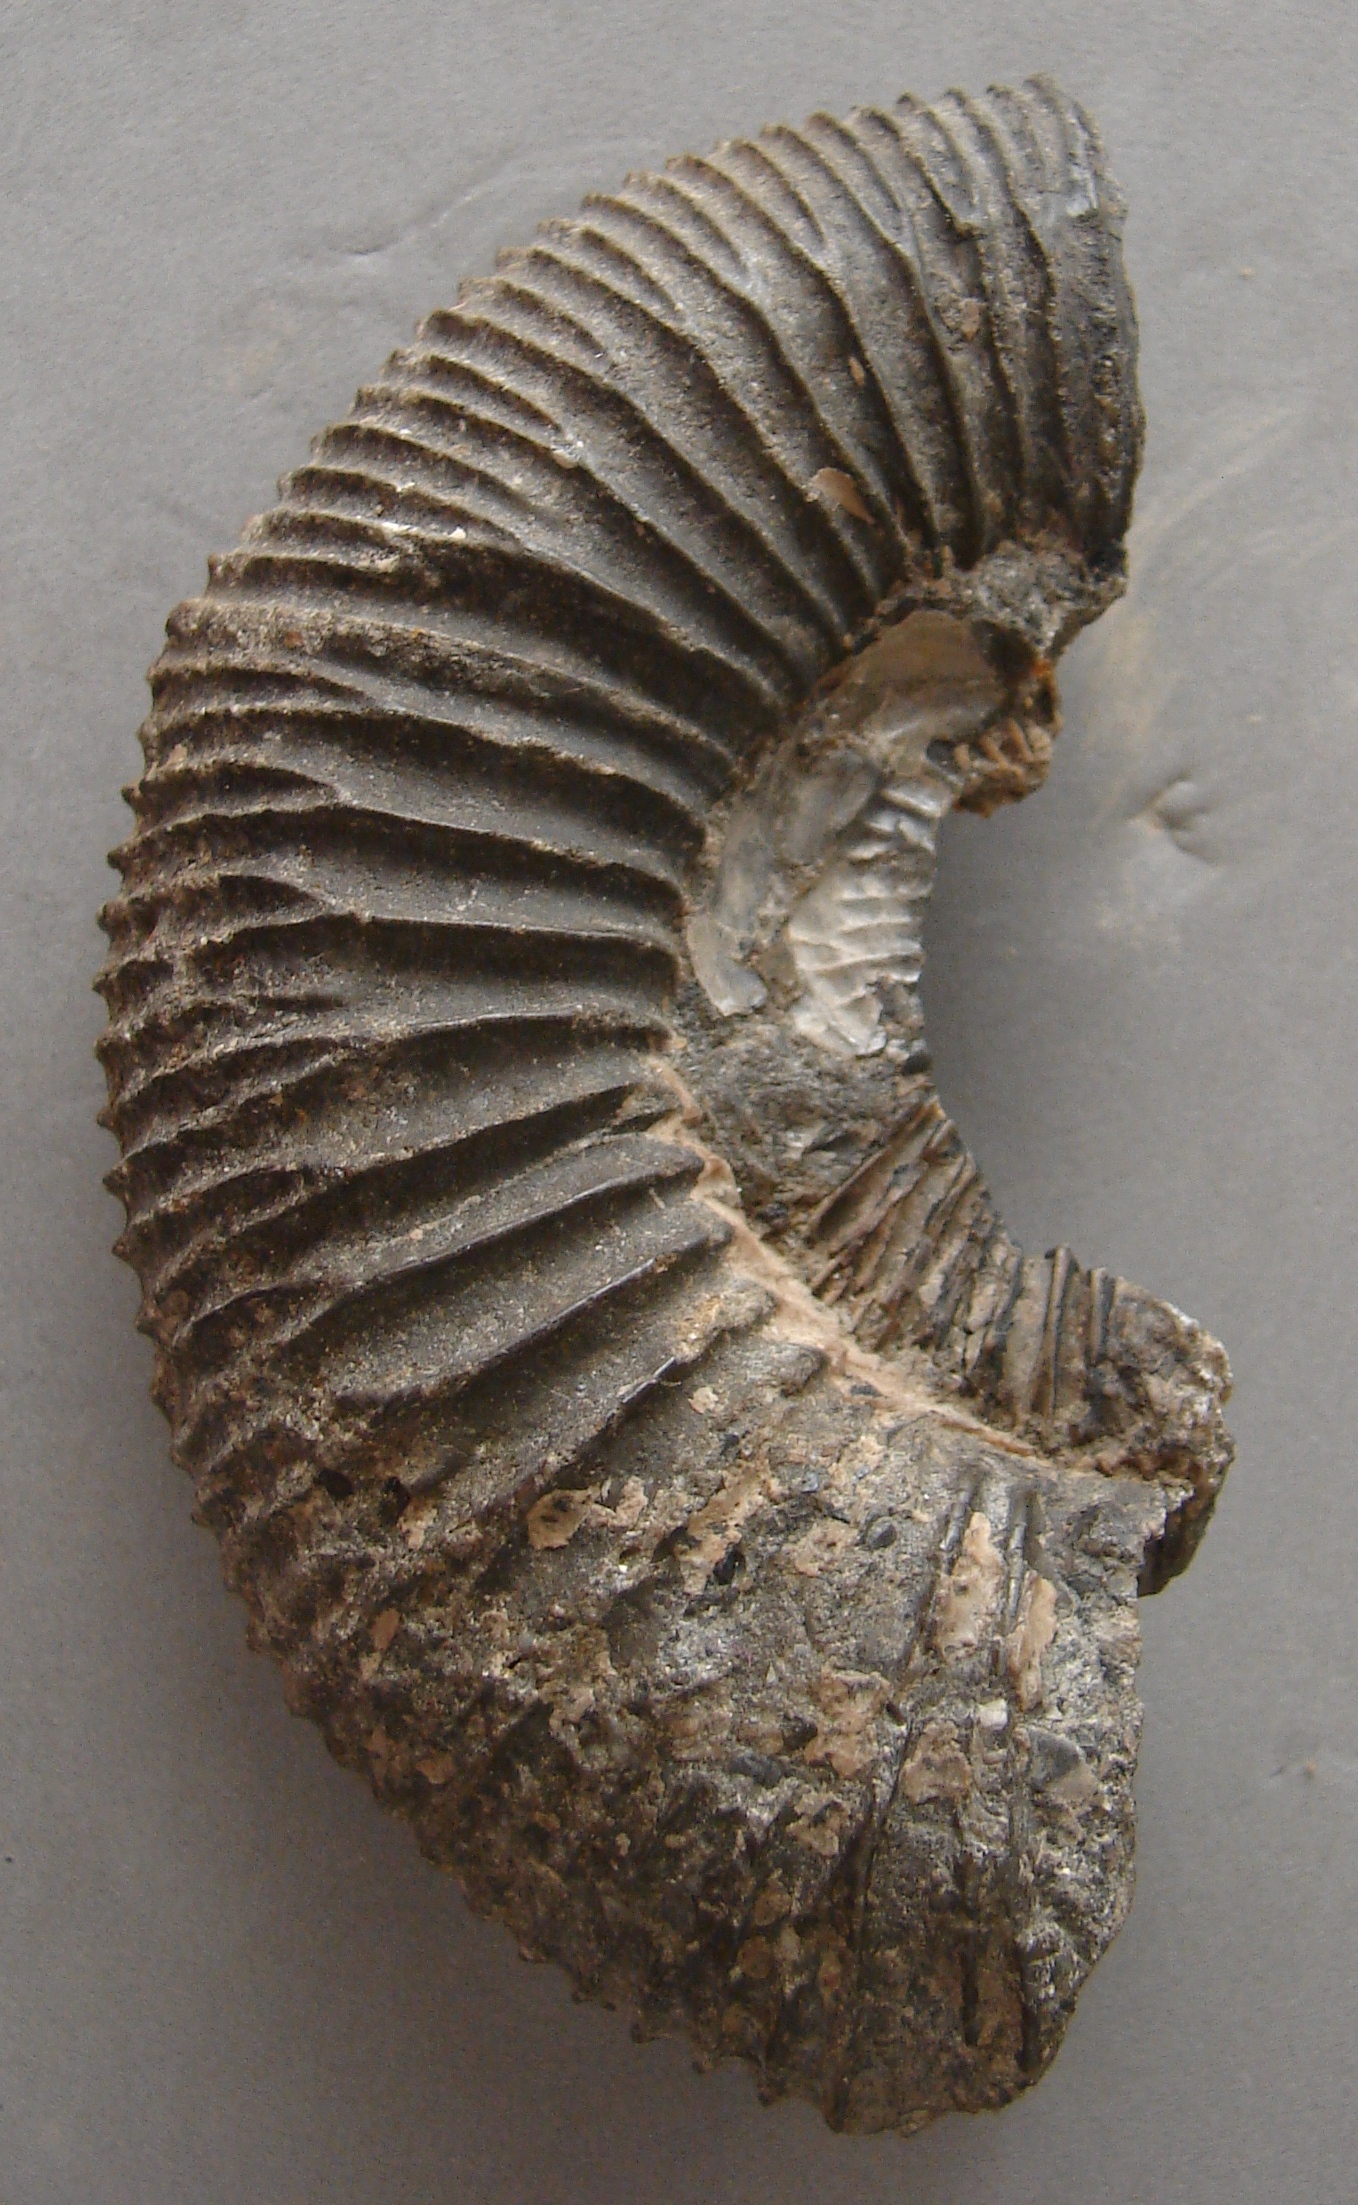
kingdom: Animalia
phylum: Mollusca
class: Cephalopoda
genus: Ammonites
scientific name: Ammonites
